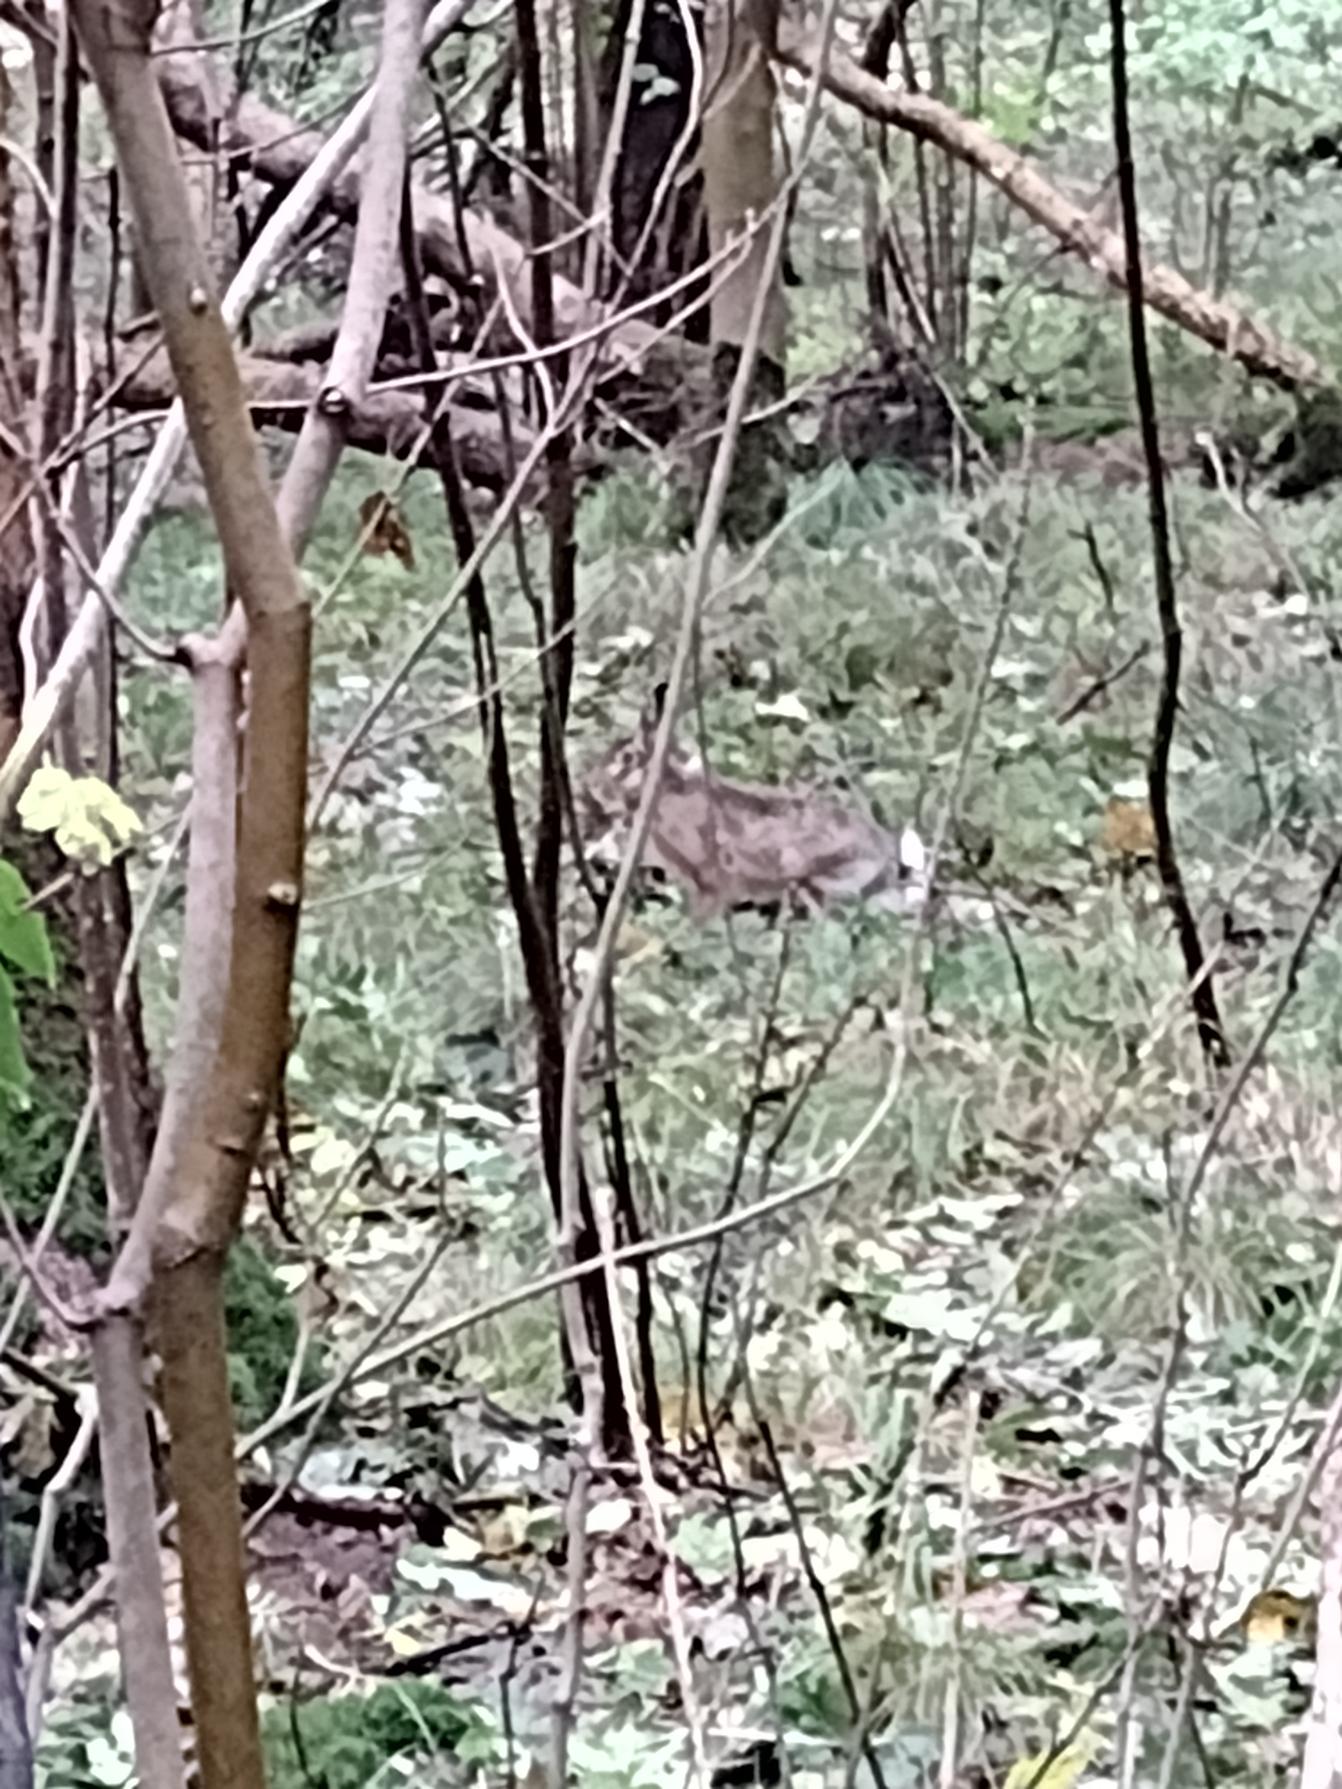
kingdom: Animalia
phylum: Chordata
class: Mammalia
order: Lagomorpha
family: Leporidae
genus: Lepus
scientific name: Lepus europaeus
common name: Hare
